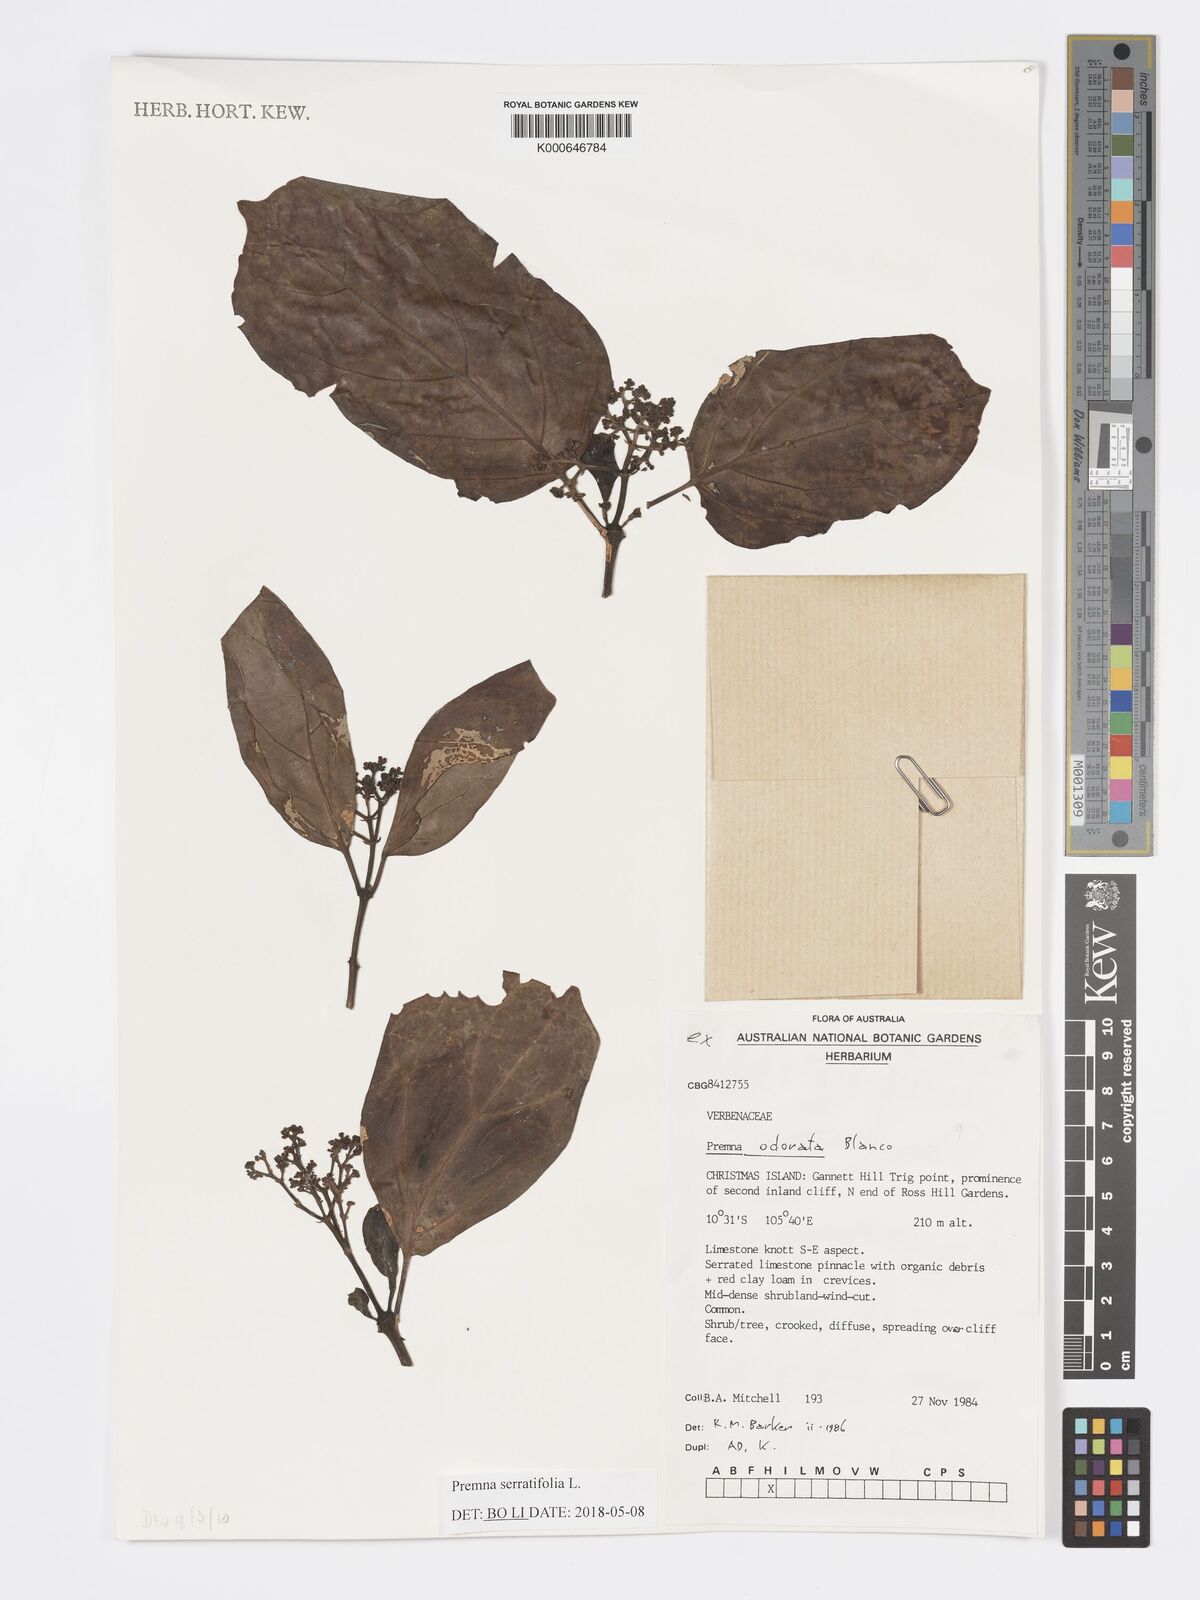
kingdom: Plantae
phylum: Tracheophyta
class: Magnoliopsida
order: Lamiales
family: Lamiaceae
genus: Premna
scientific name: Premna odorata
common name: Fragrant premna
